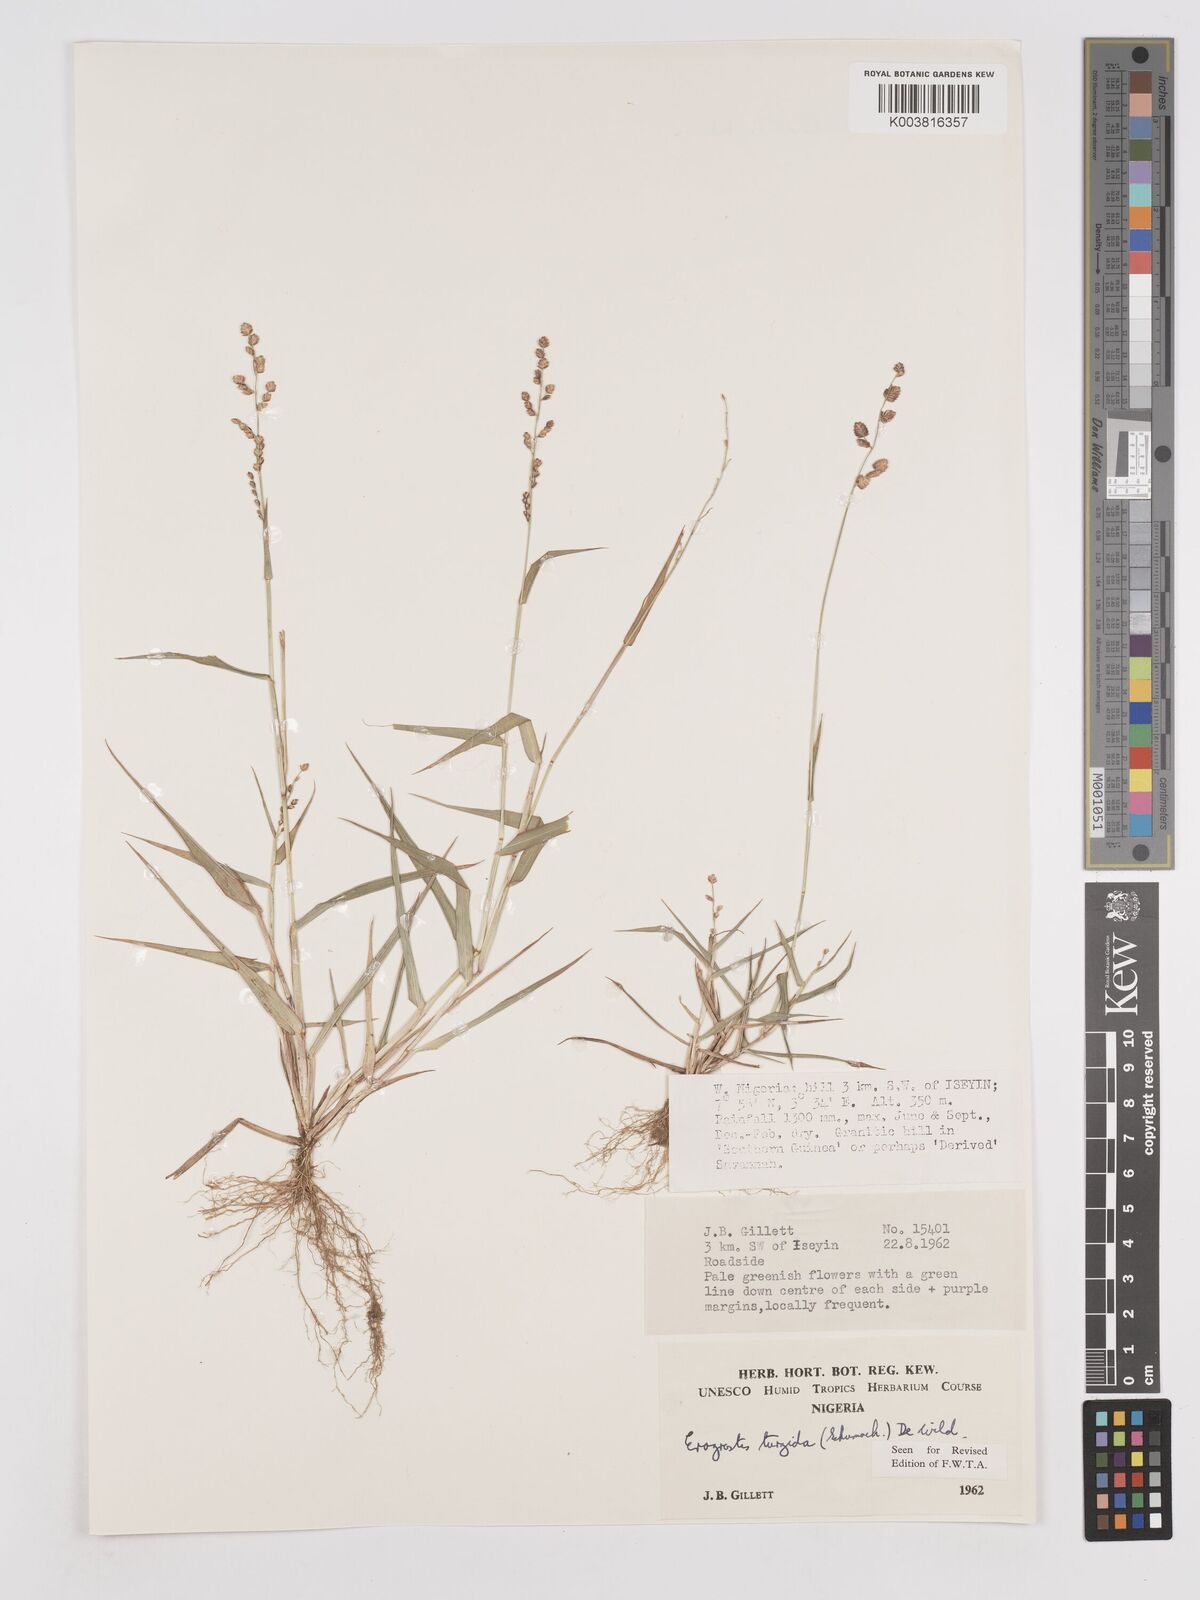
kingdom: Plantae
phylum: Tracheophyta
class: Liliopsida
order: Poales
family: Poaceae
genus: Eragrostis
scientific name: Eragrostis turgida
